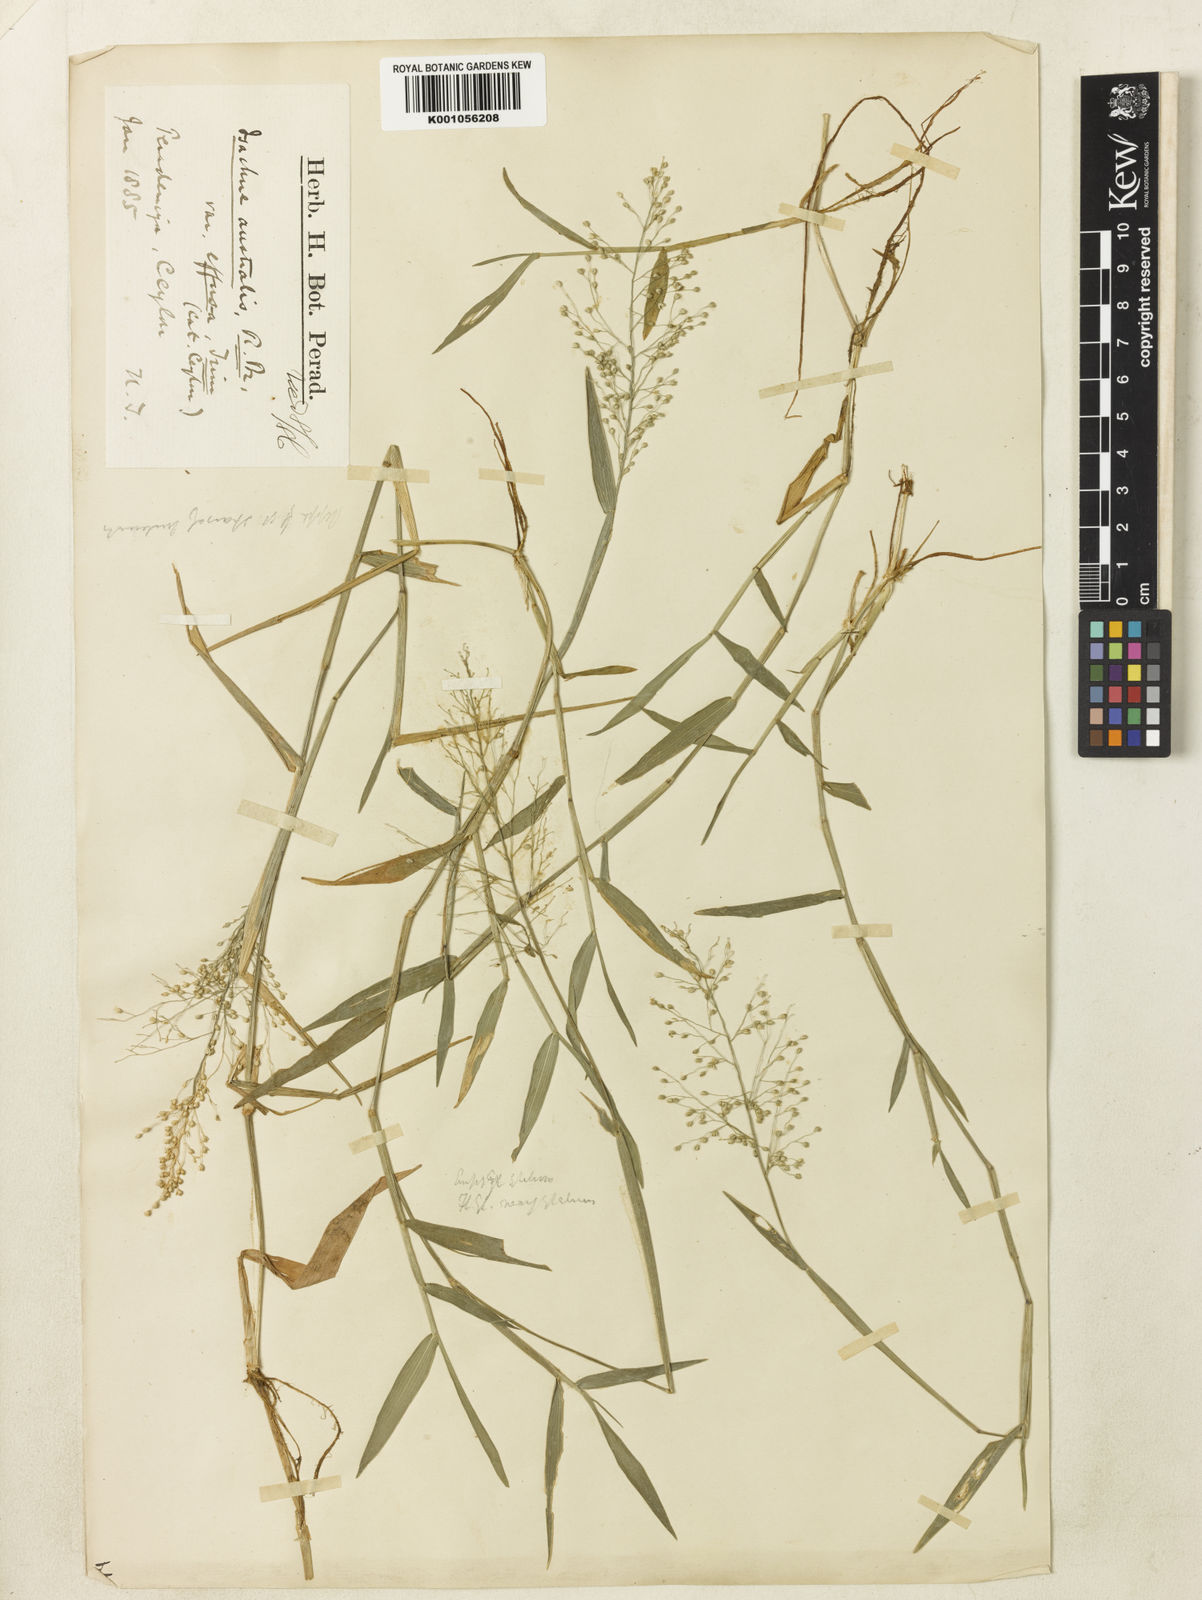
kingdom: Plantae
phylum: Tracheophyta
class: Liliopsida
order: Poales
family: Poaceae
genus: Isachne
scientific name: Isachne globosa
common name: Swamp millet
